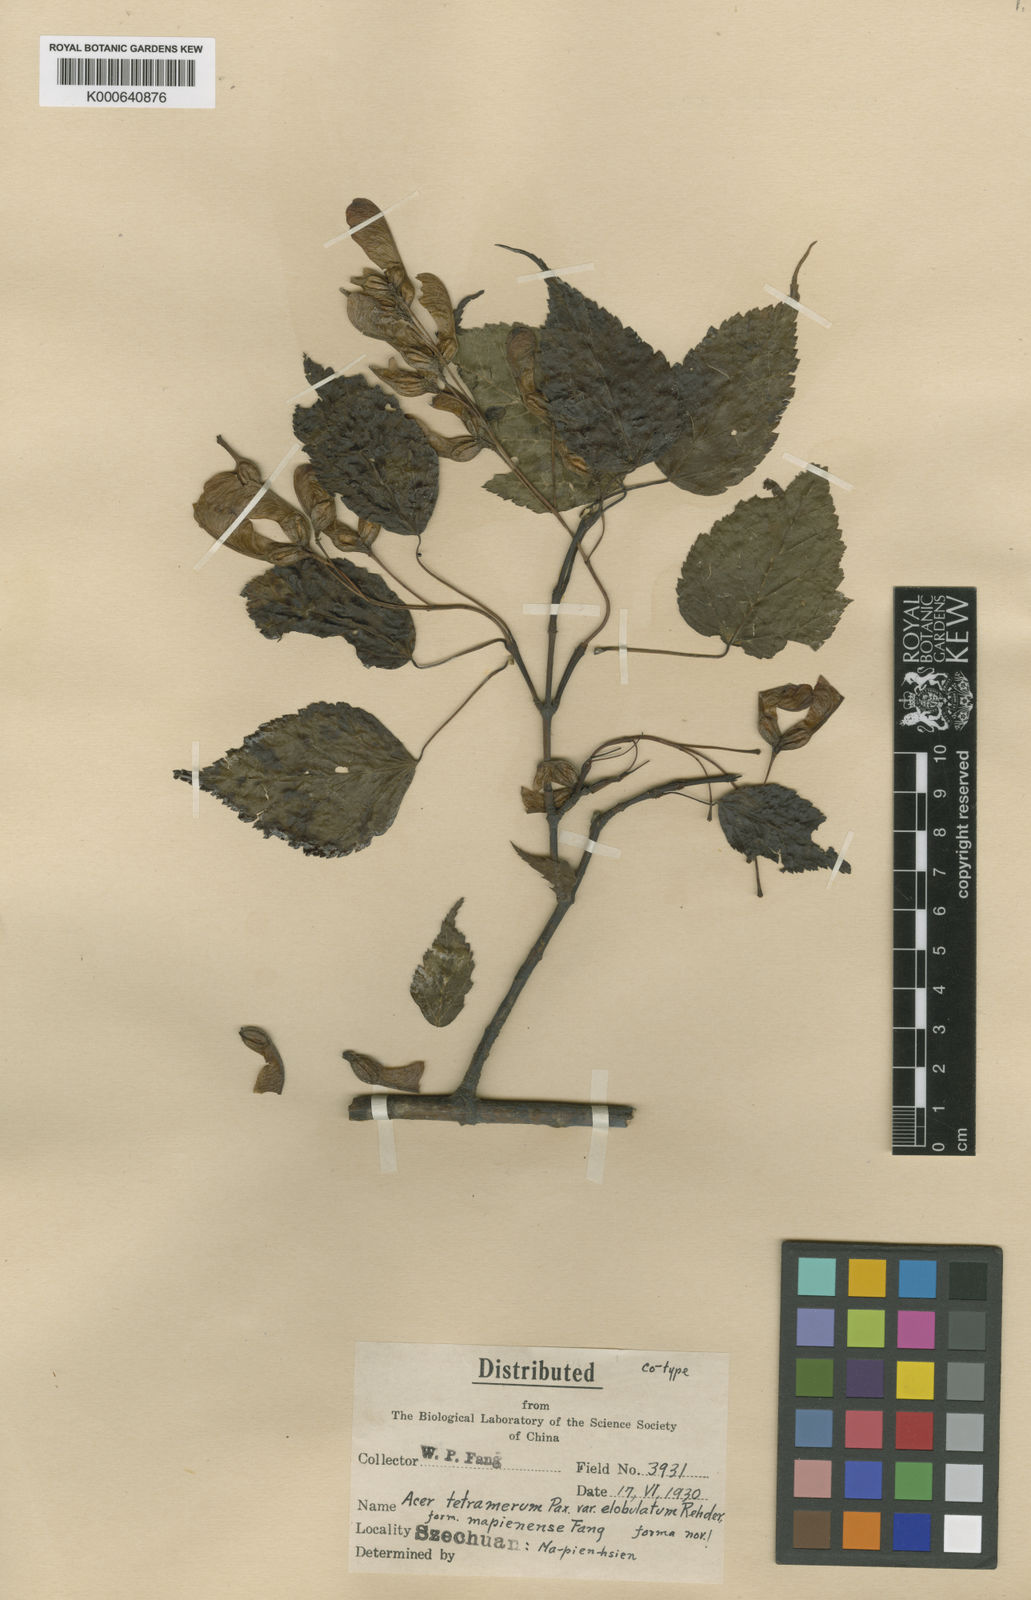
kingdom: Plantae
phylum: Tracheophyta
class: Magnoliopsida
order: Sapindales
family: Sapindaceae
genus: Acer
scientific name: Acer stachyophyllum
